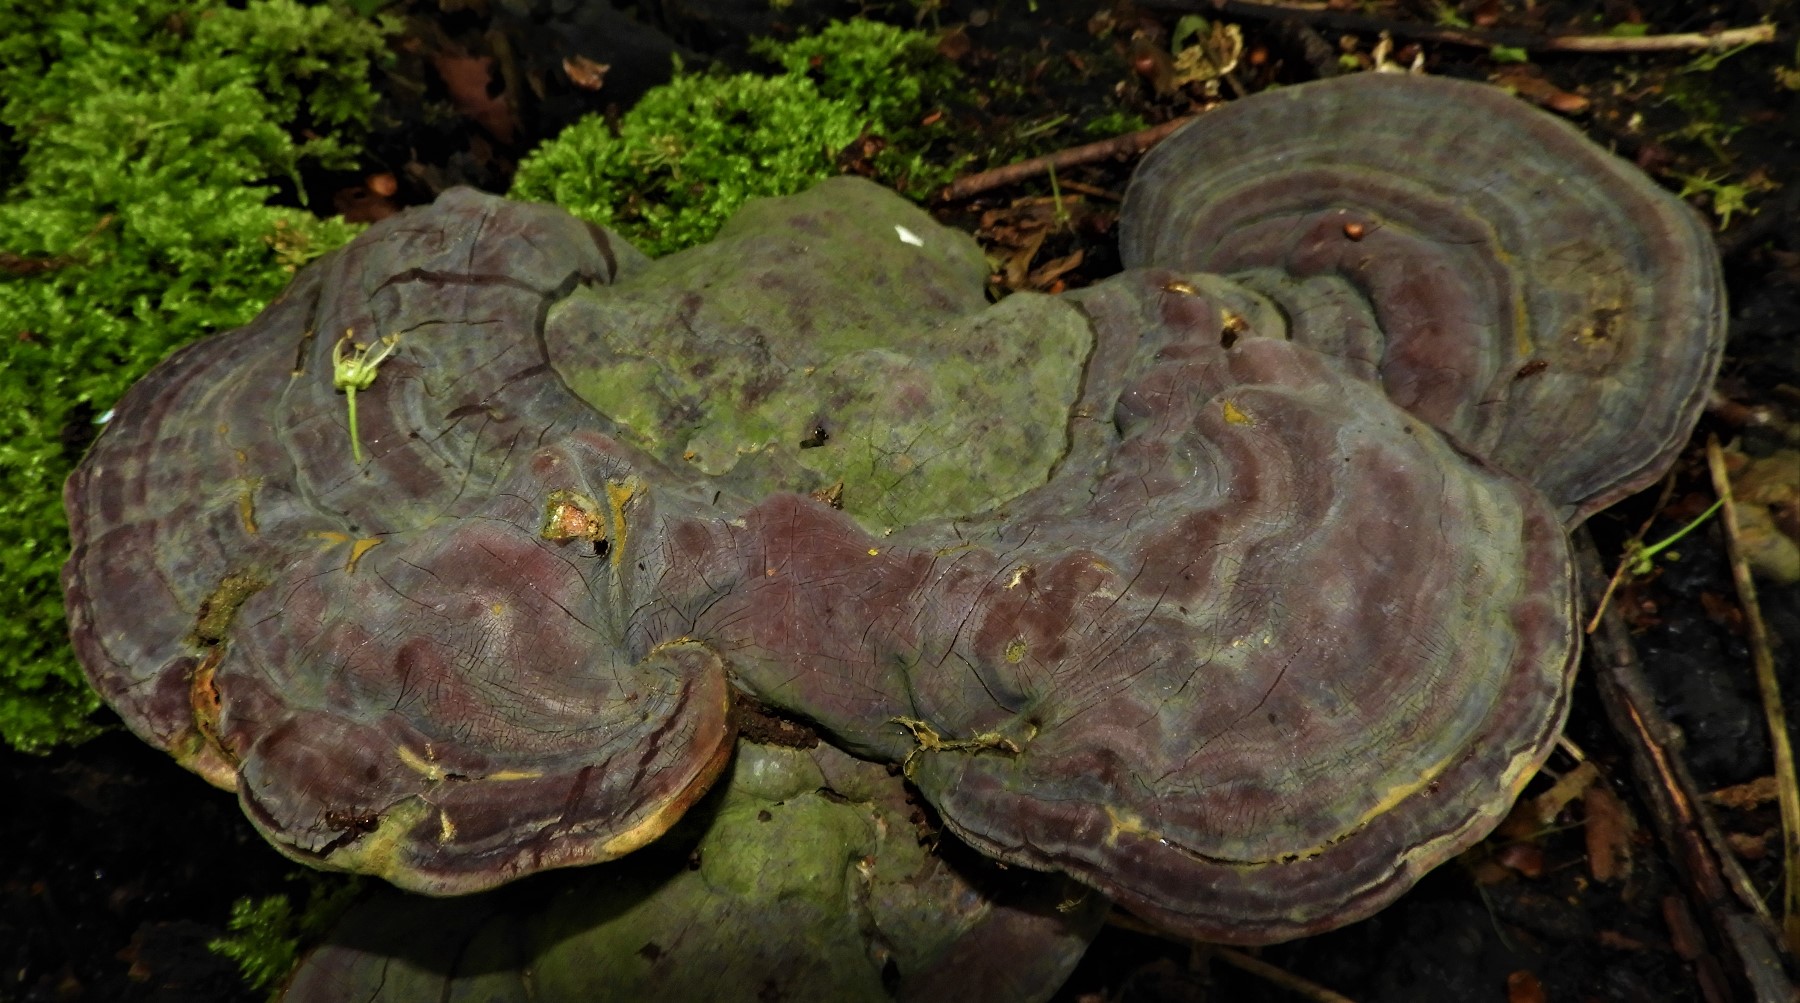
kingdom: Fungi
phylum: Basidiomycota
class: Agaricomycetes
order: Polyporales
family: Polyporaceae
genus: Ganoderma
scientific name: Ganoderma pfeifferi
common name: kobberrød lakporesvamp
